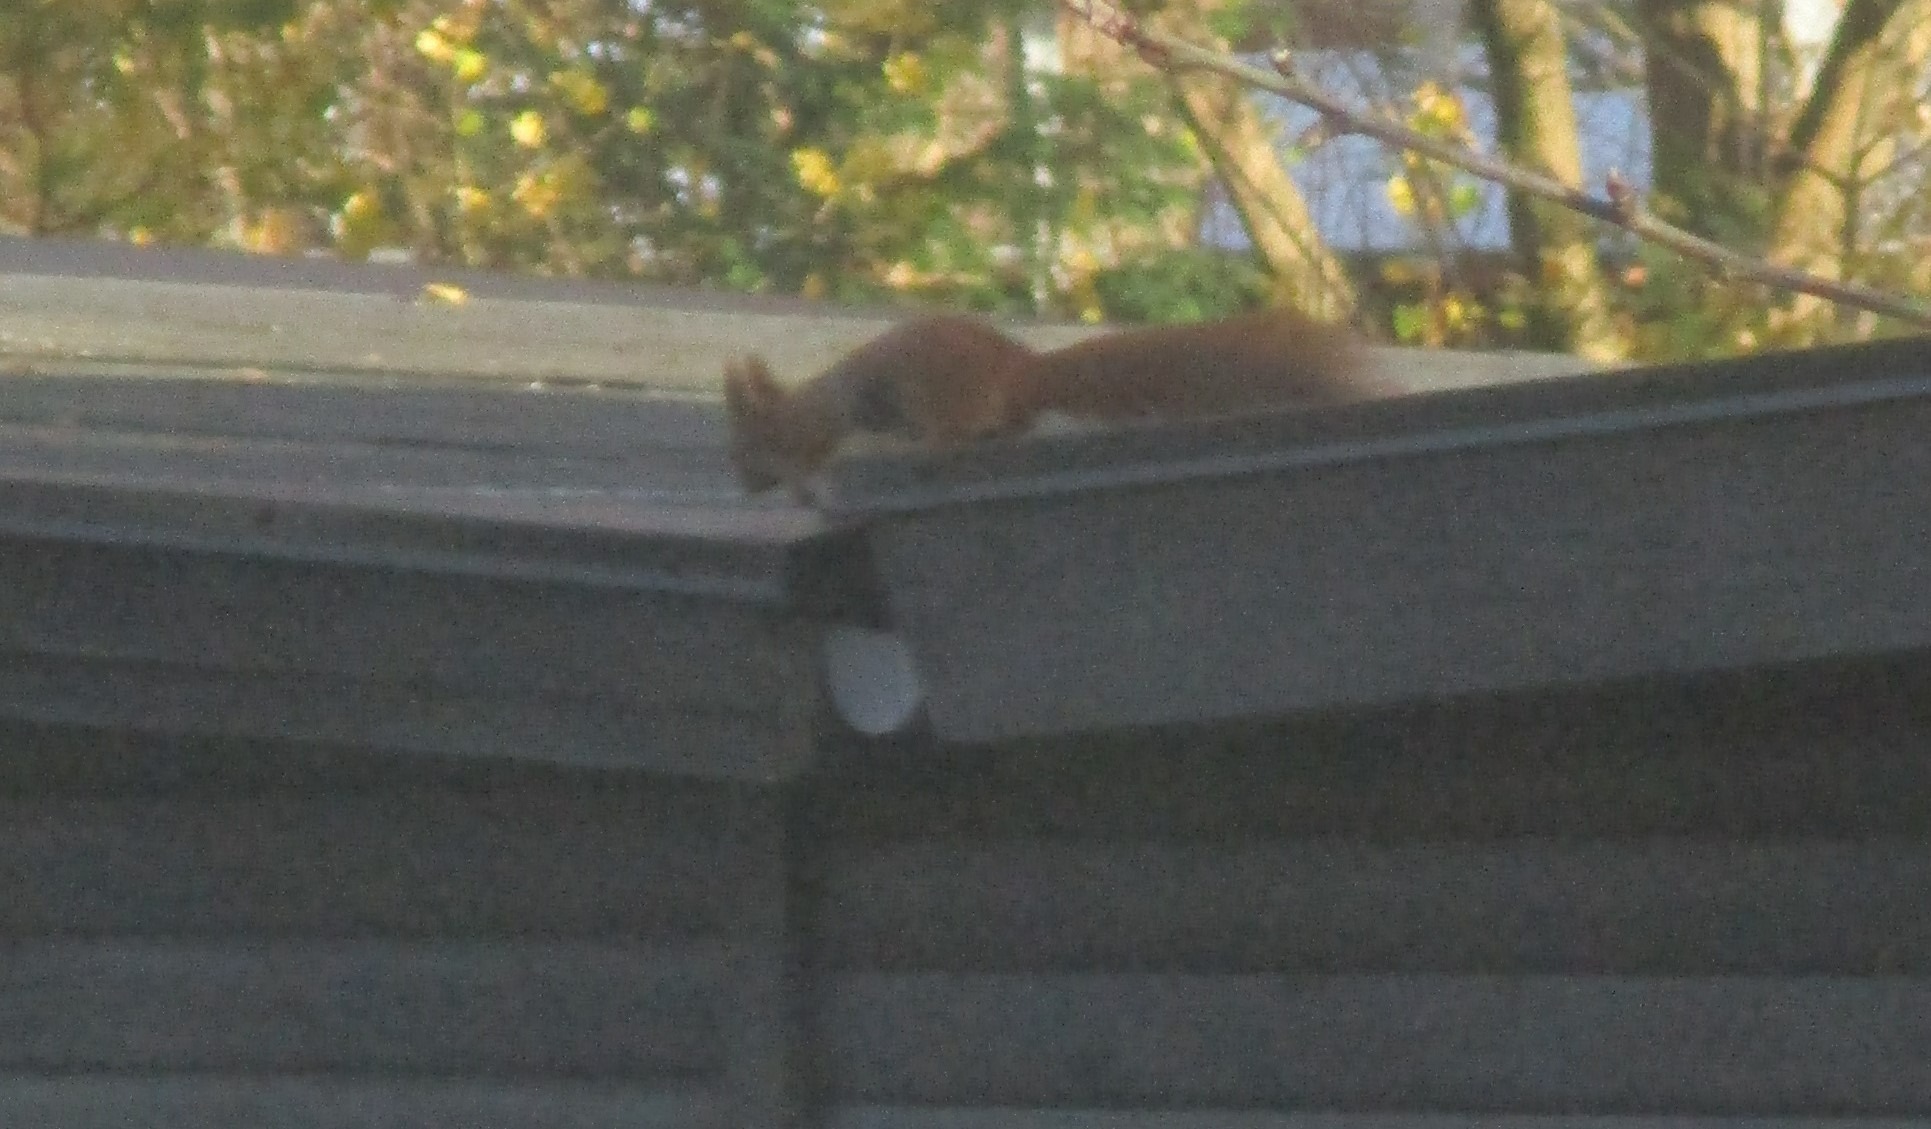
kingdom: Animalia
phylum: Chordata
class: Mammalia
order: Rodentia
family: Sciuridae
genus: Sciurus
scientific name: Sciurus vulgaris
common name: Egern
